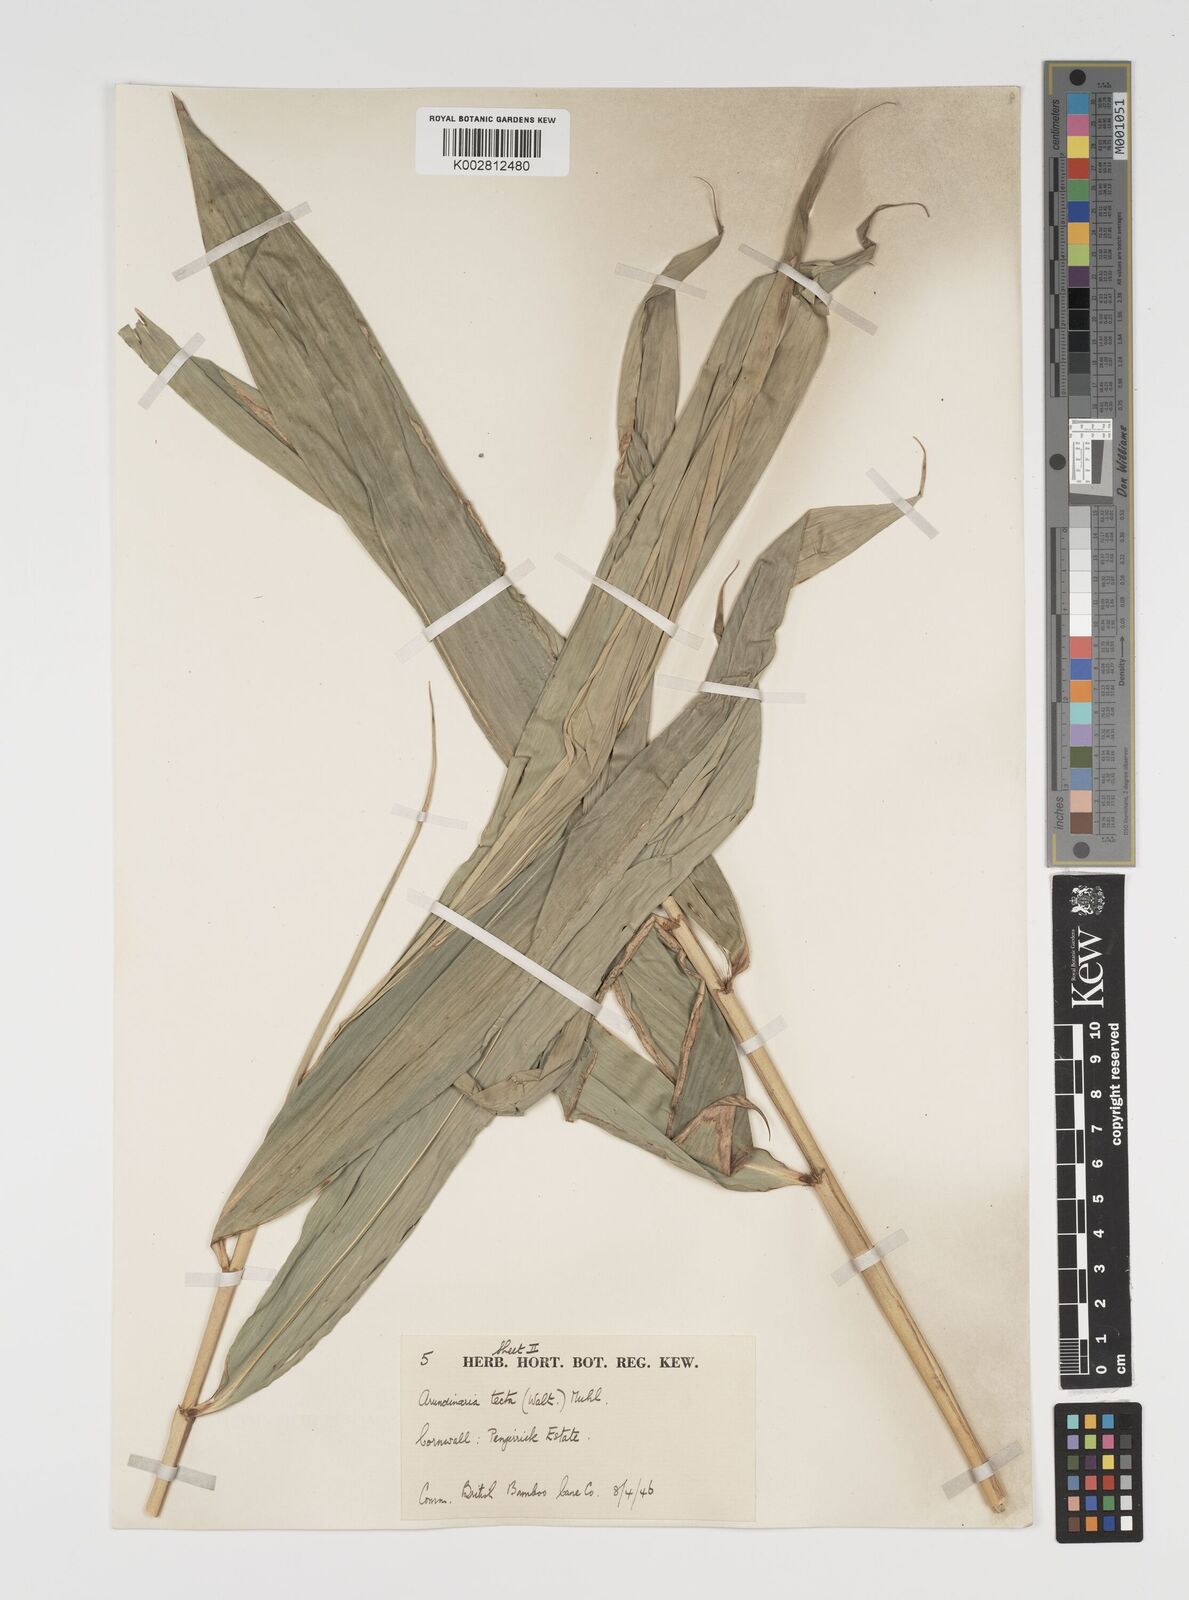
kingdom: Plantae
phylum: Tracheophyta
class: Liliopsida
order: Poales
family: Poaceae
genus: Arundinaria
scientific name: Arundinaria tecta
